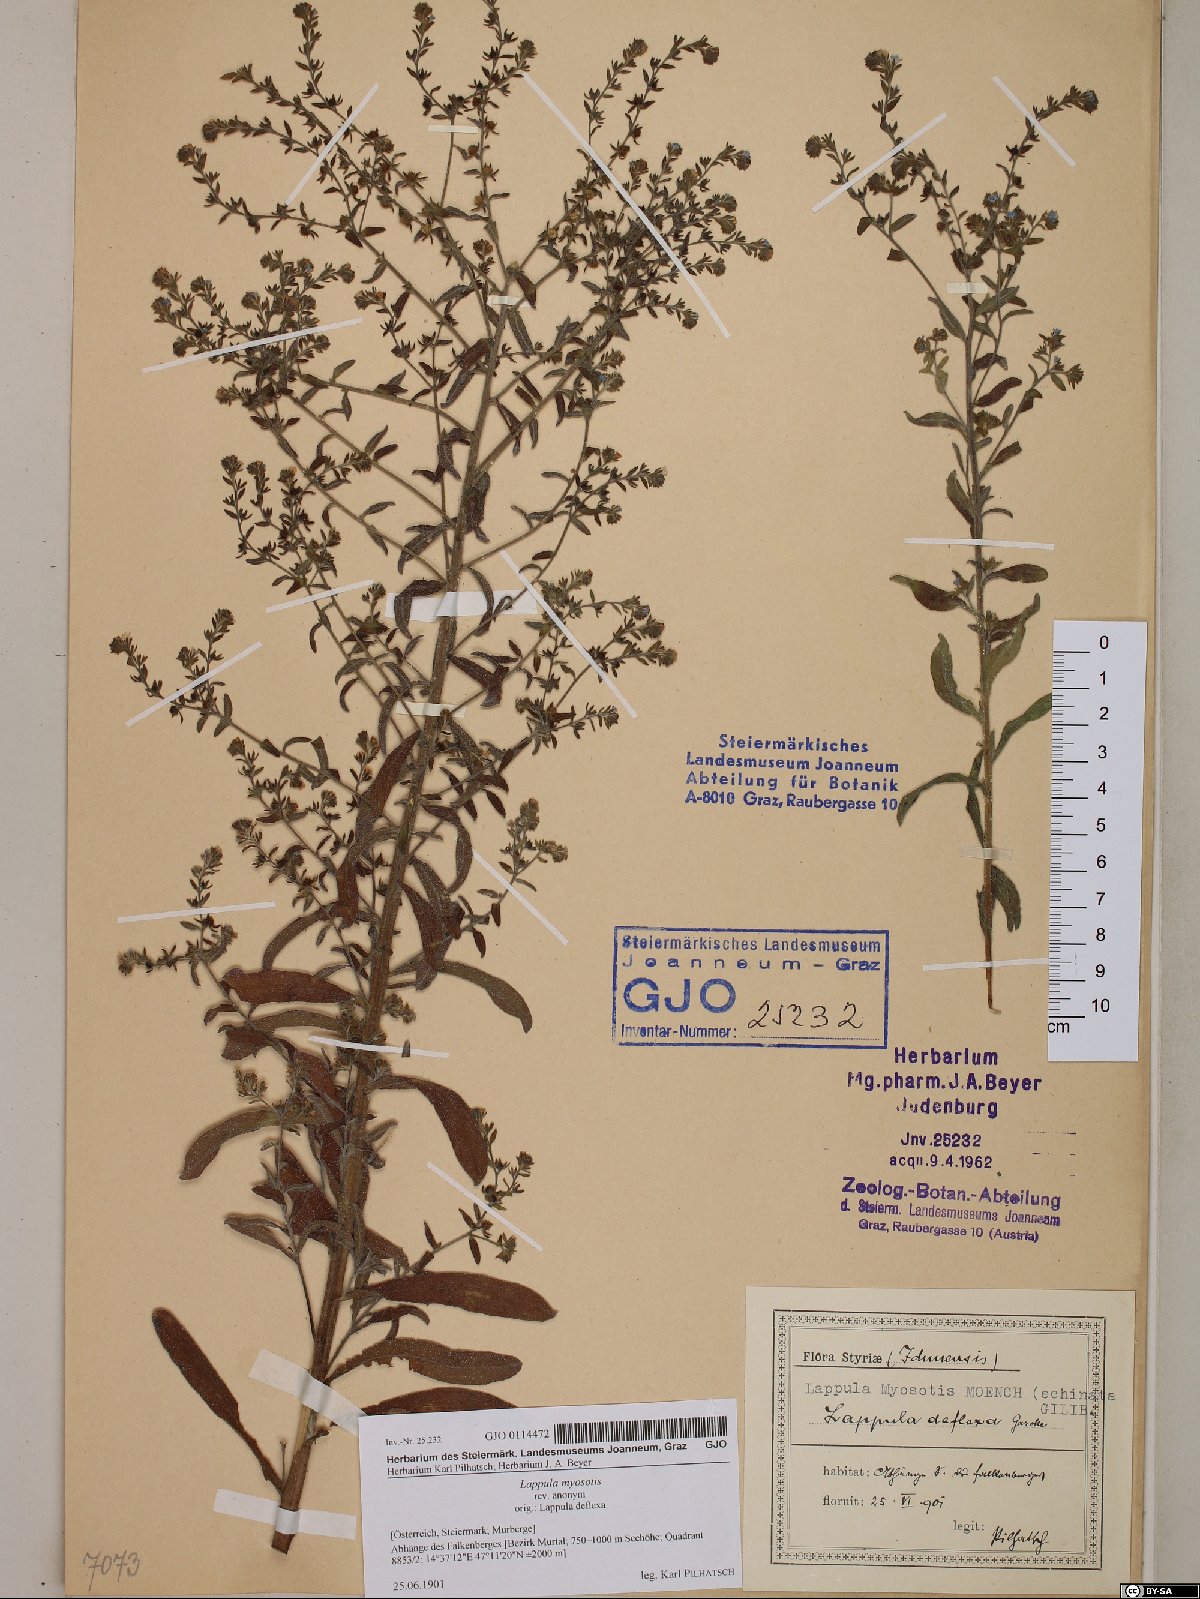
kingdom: Plantae
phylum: Tracheophyta
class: Magnoliopsida
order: Boraginales
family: Boraginaceae
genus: Lappula
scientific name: Lappula squarrosa
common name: European stickseed
